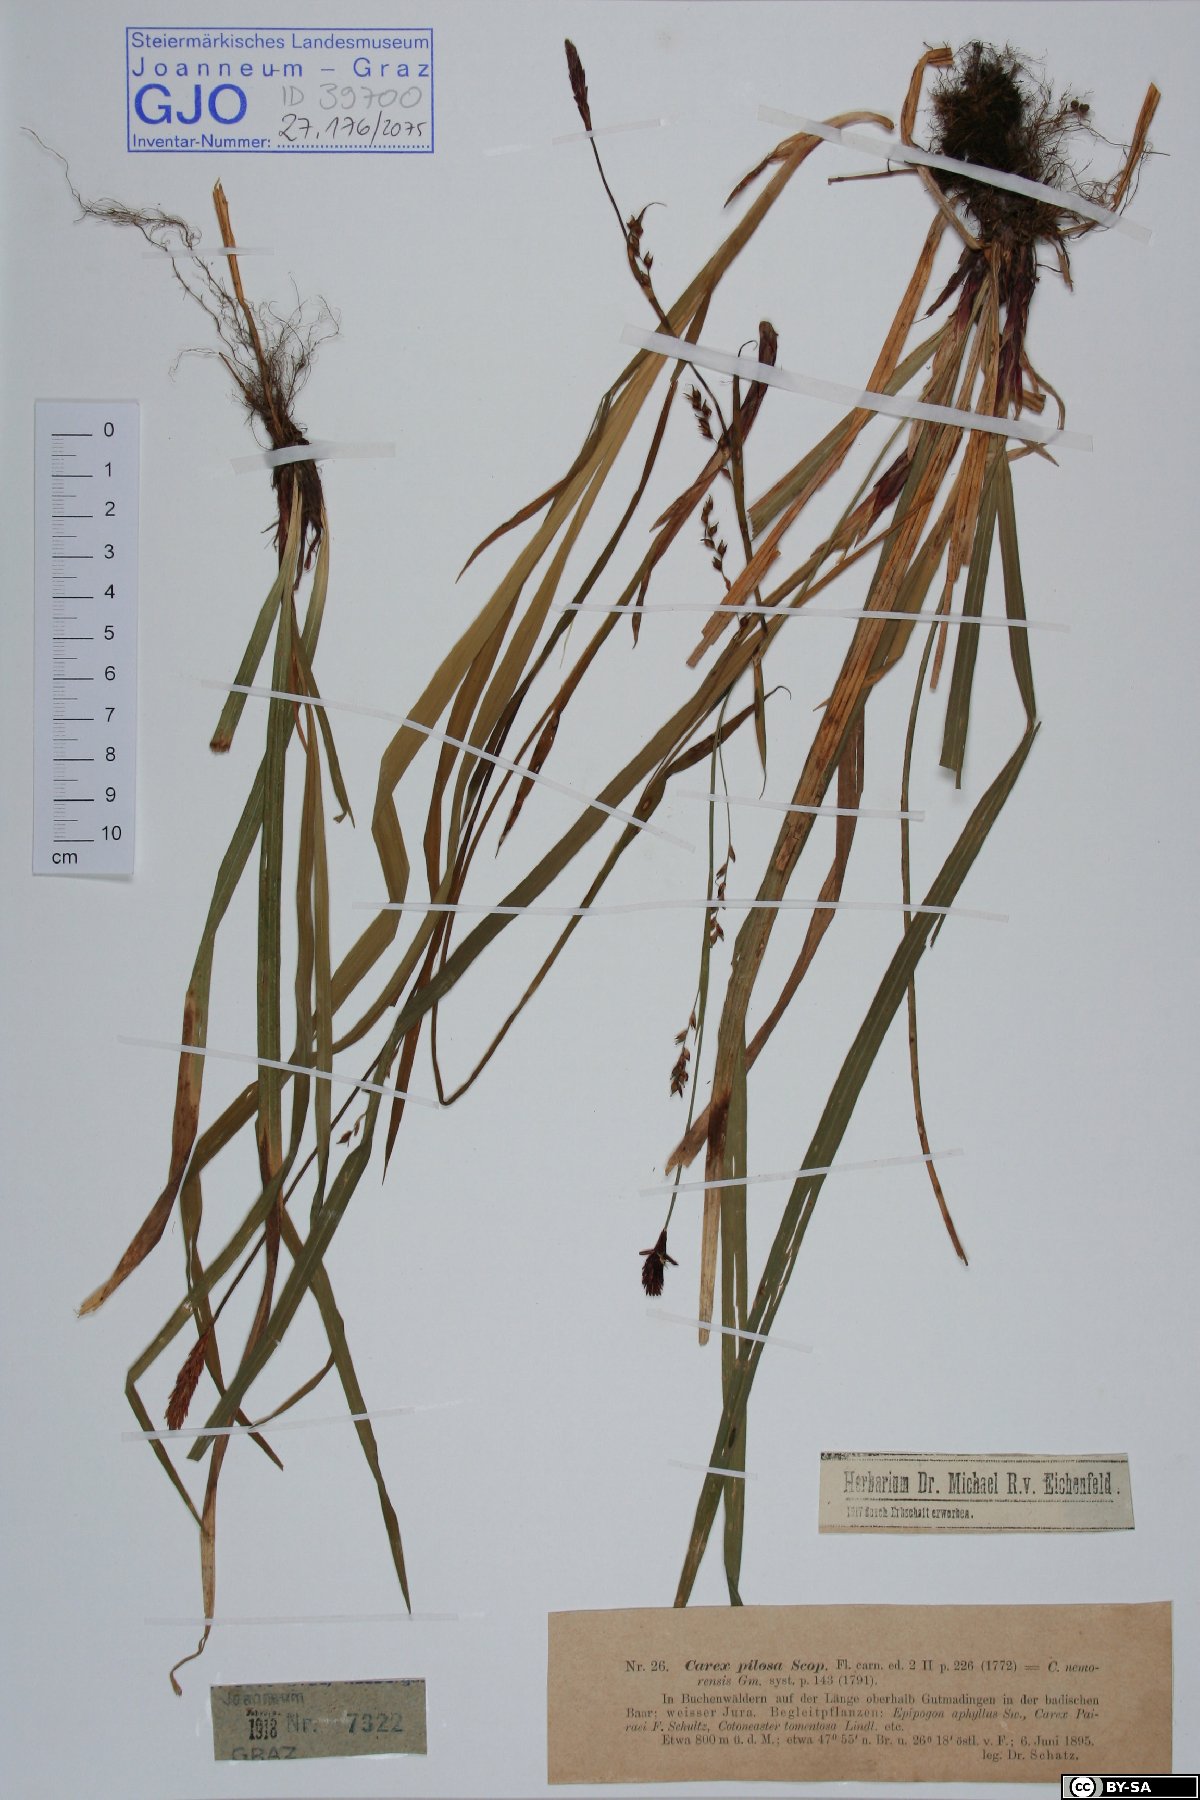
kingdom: Plantae
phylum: Tracheophyta
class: Liliopsida
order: Poales
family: Cyperaceae
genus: Carex
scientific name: Carex pilosa
